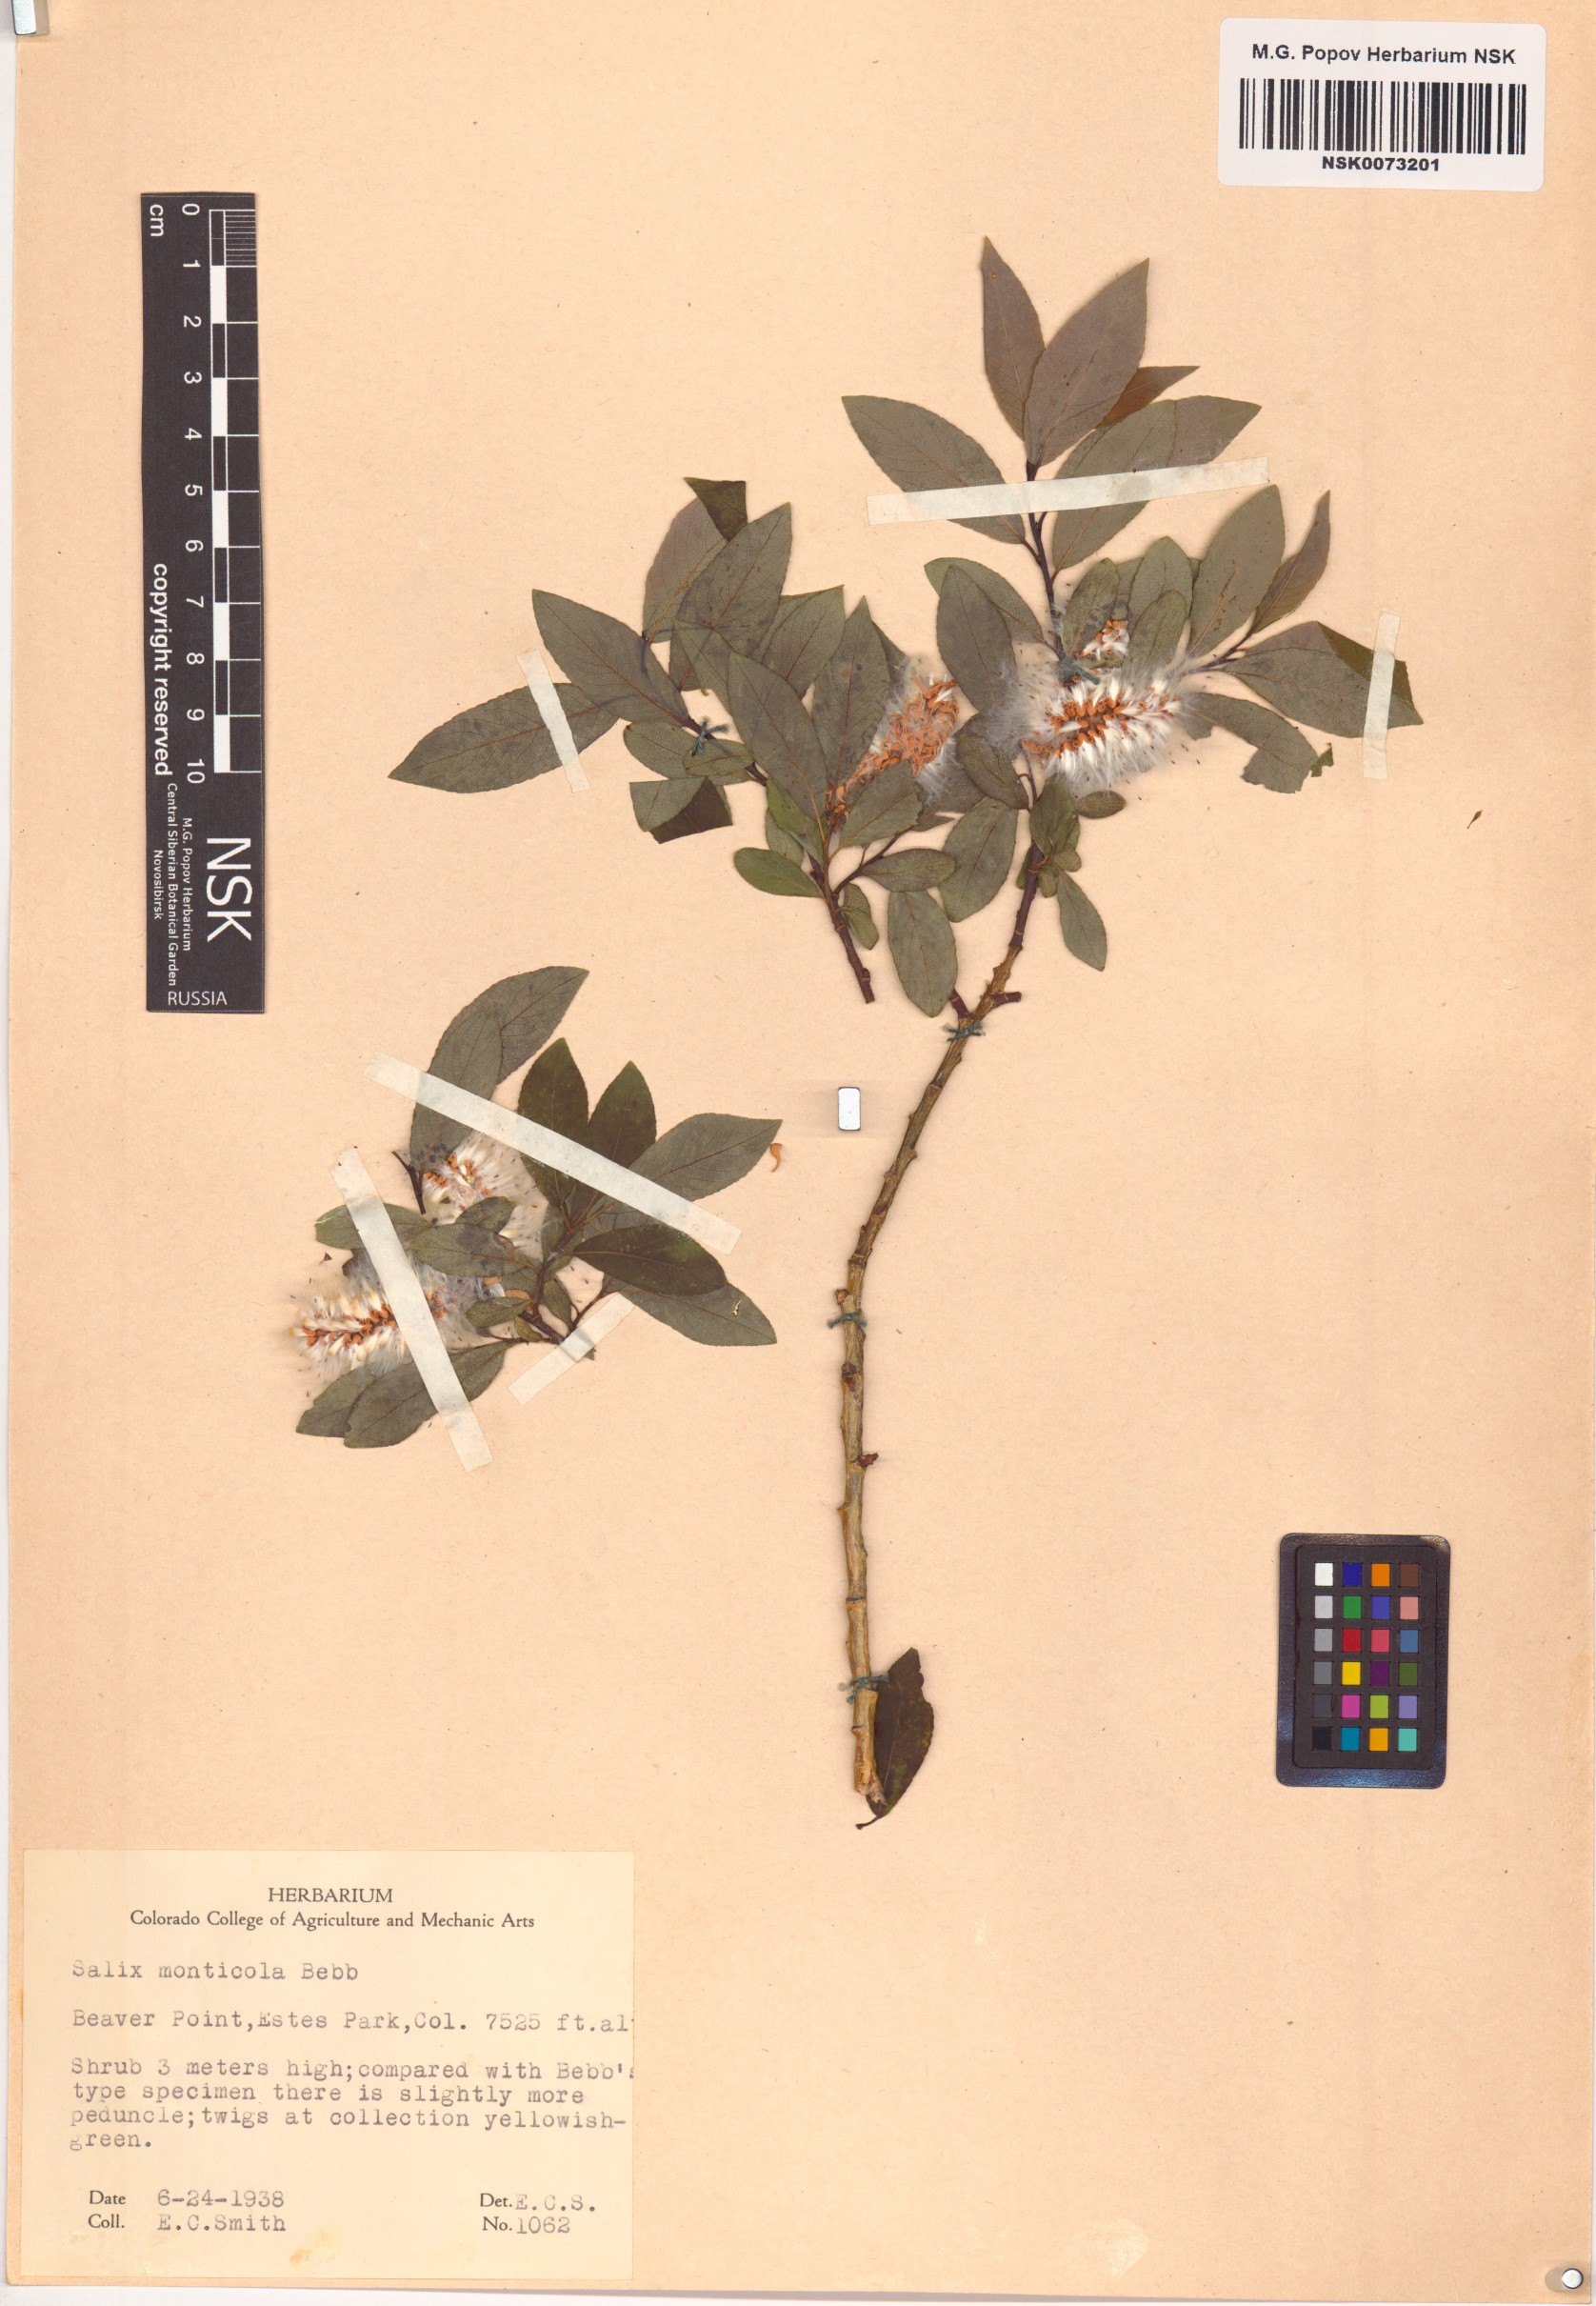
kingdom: Plantae
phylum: Tracheophyta
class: Magnoliopsida
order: Malpighiales
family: Salicaceae
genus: Salix
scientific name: Salix monticola
